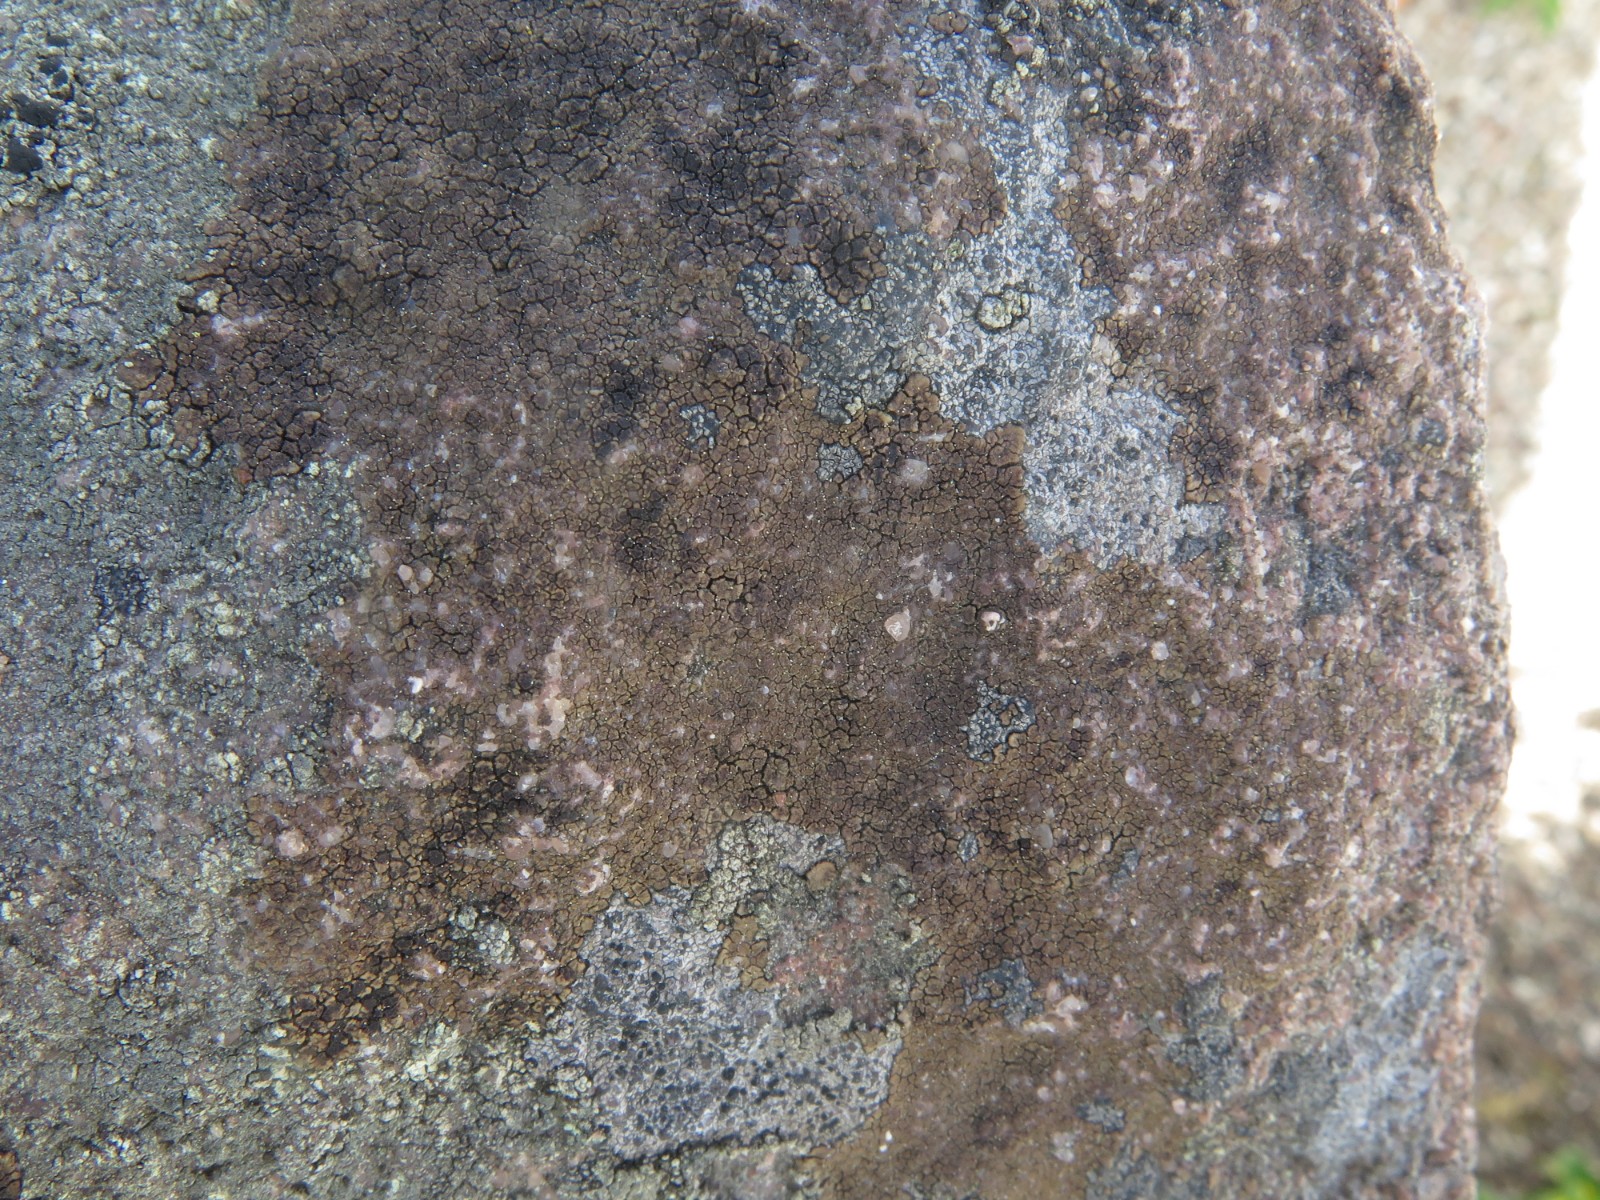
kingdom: Fungi
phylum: Ascomycota
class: Lecanoromycetes
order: Acarosporales
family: Acarosporaceae
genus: Acarospora
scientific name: Acarospora fuscata
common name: brun småsporelav
